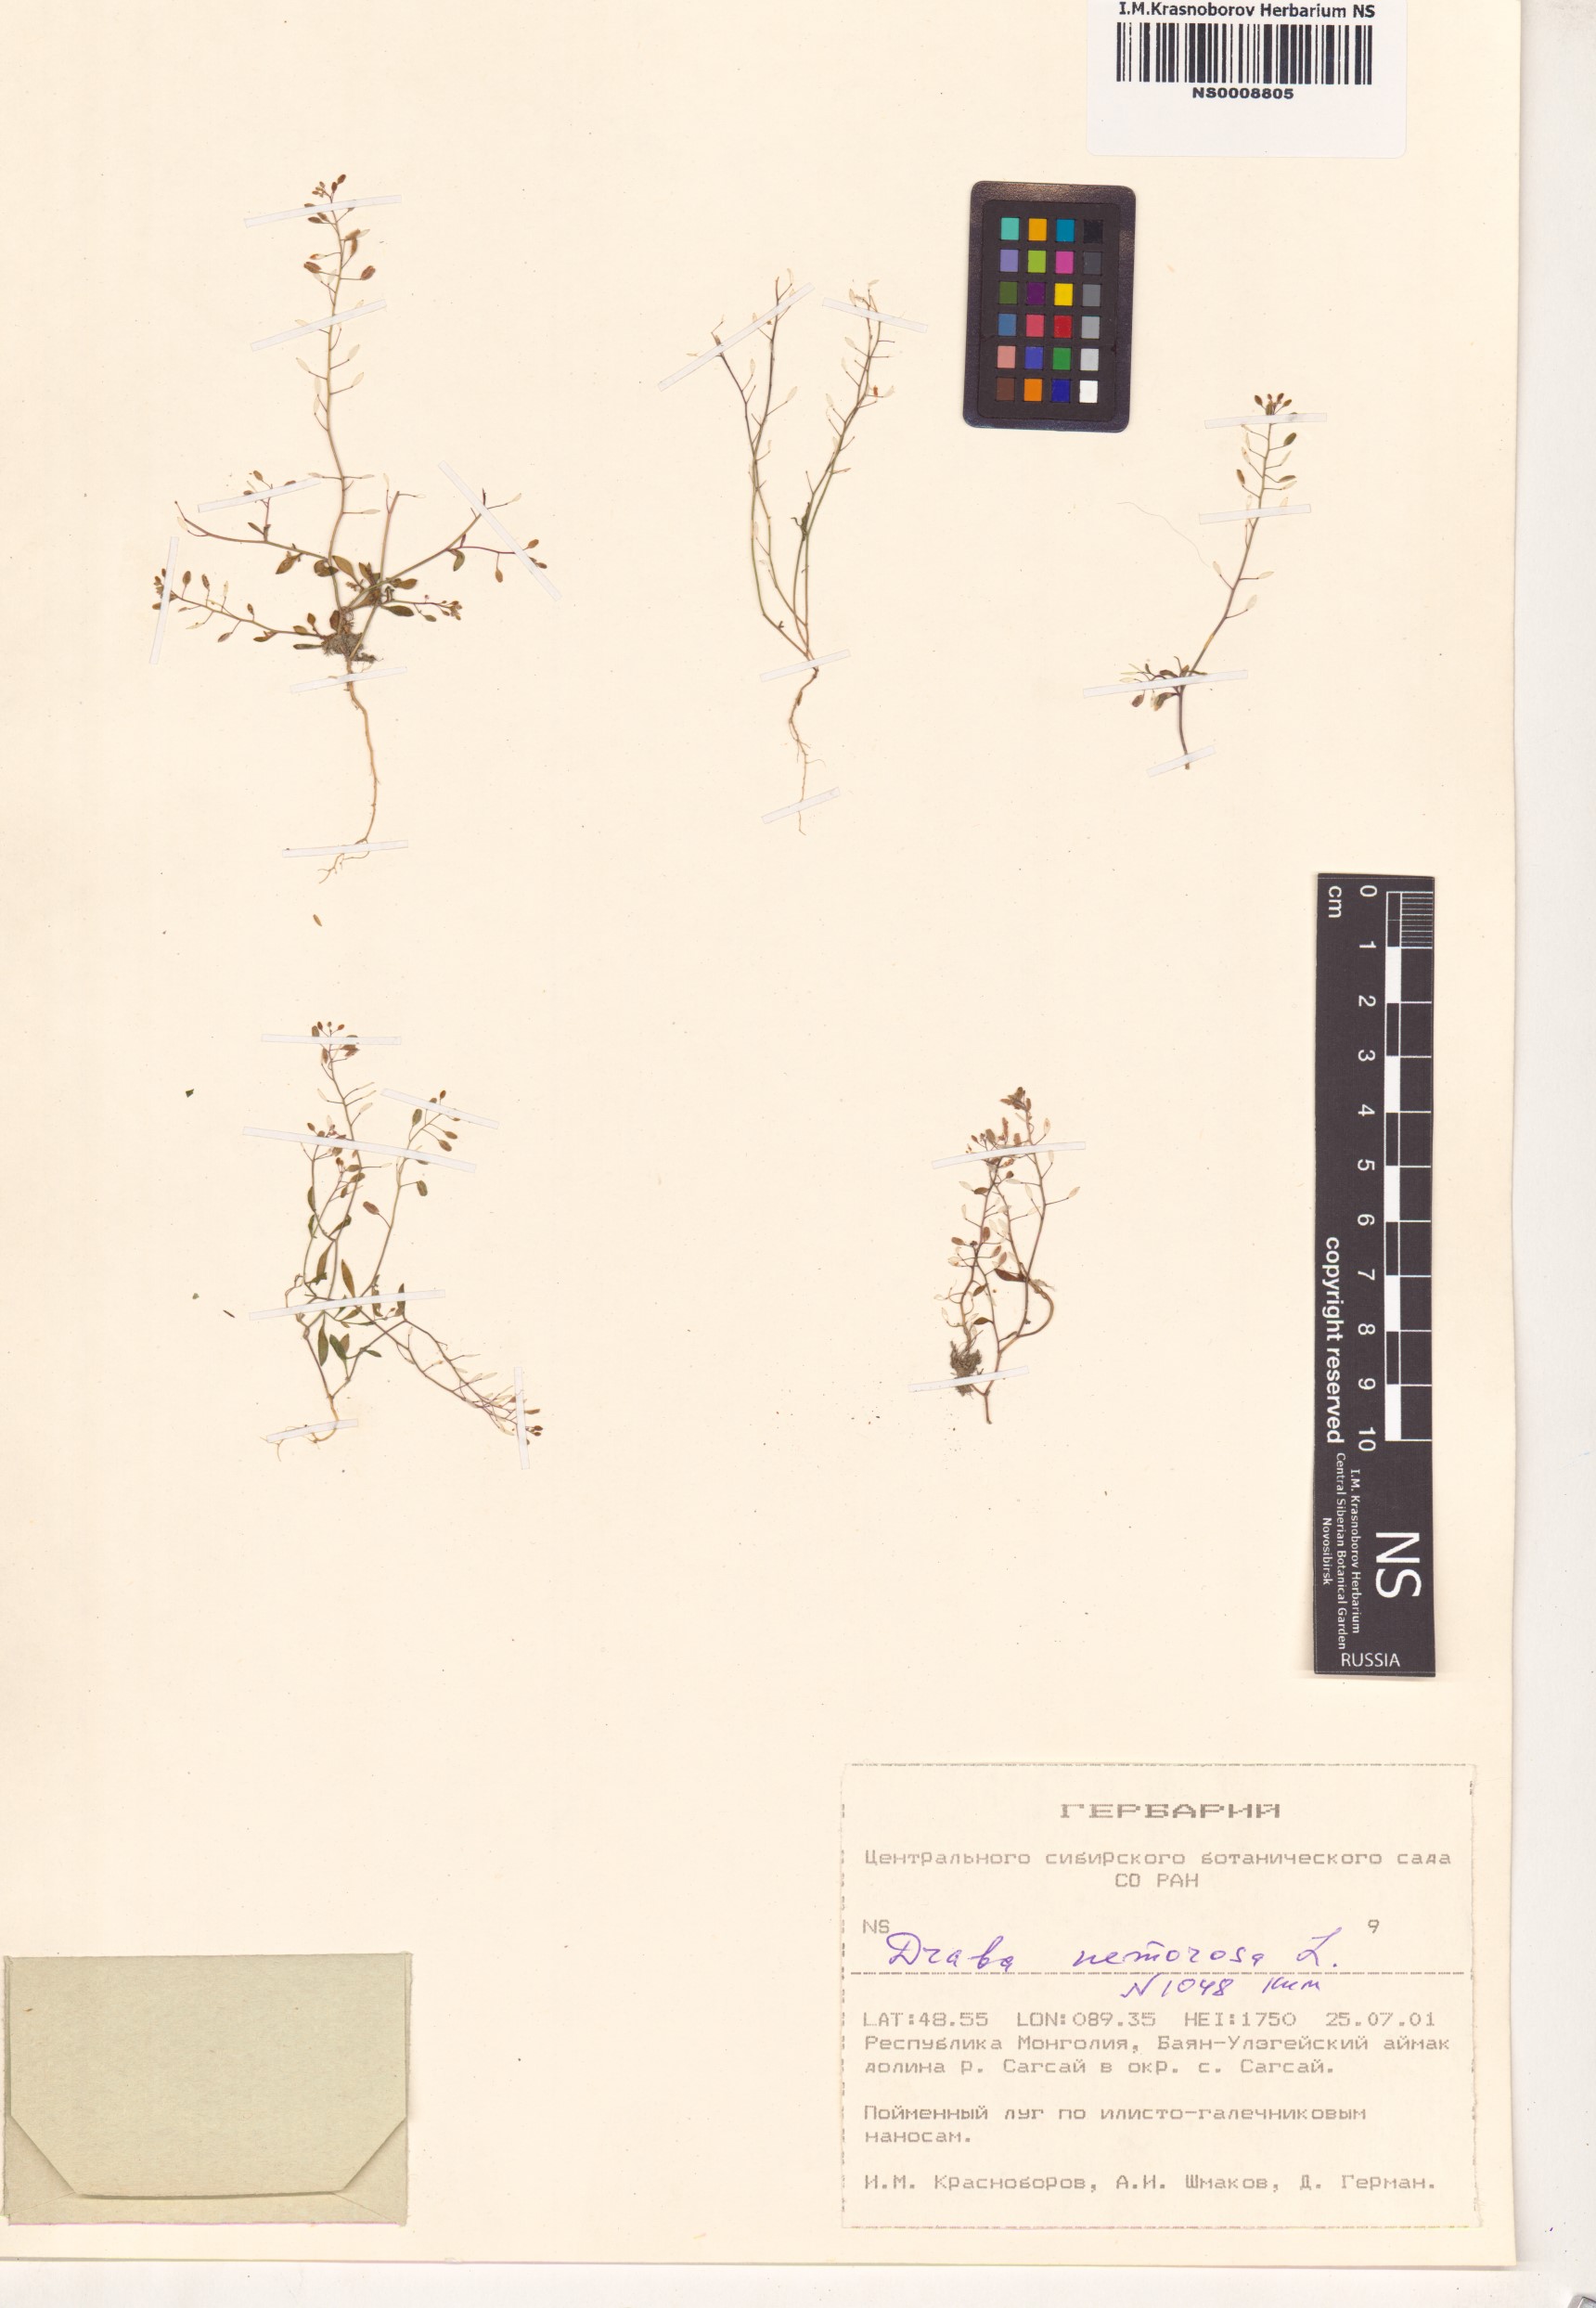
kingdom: Plantae
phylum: Tracheophyta
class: Magnoliopsida
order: Brassicales
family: Brassicaceae
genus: Draba
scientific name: Draba nemorosa
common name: Wood whitlow-grass
